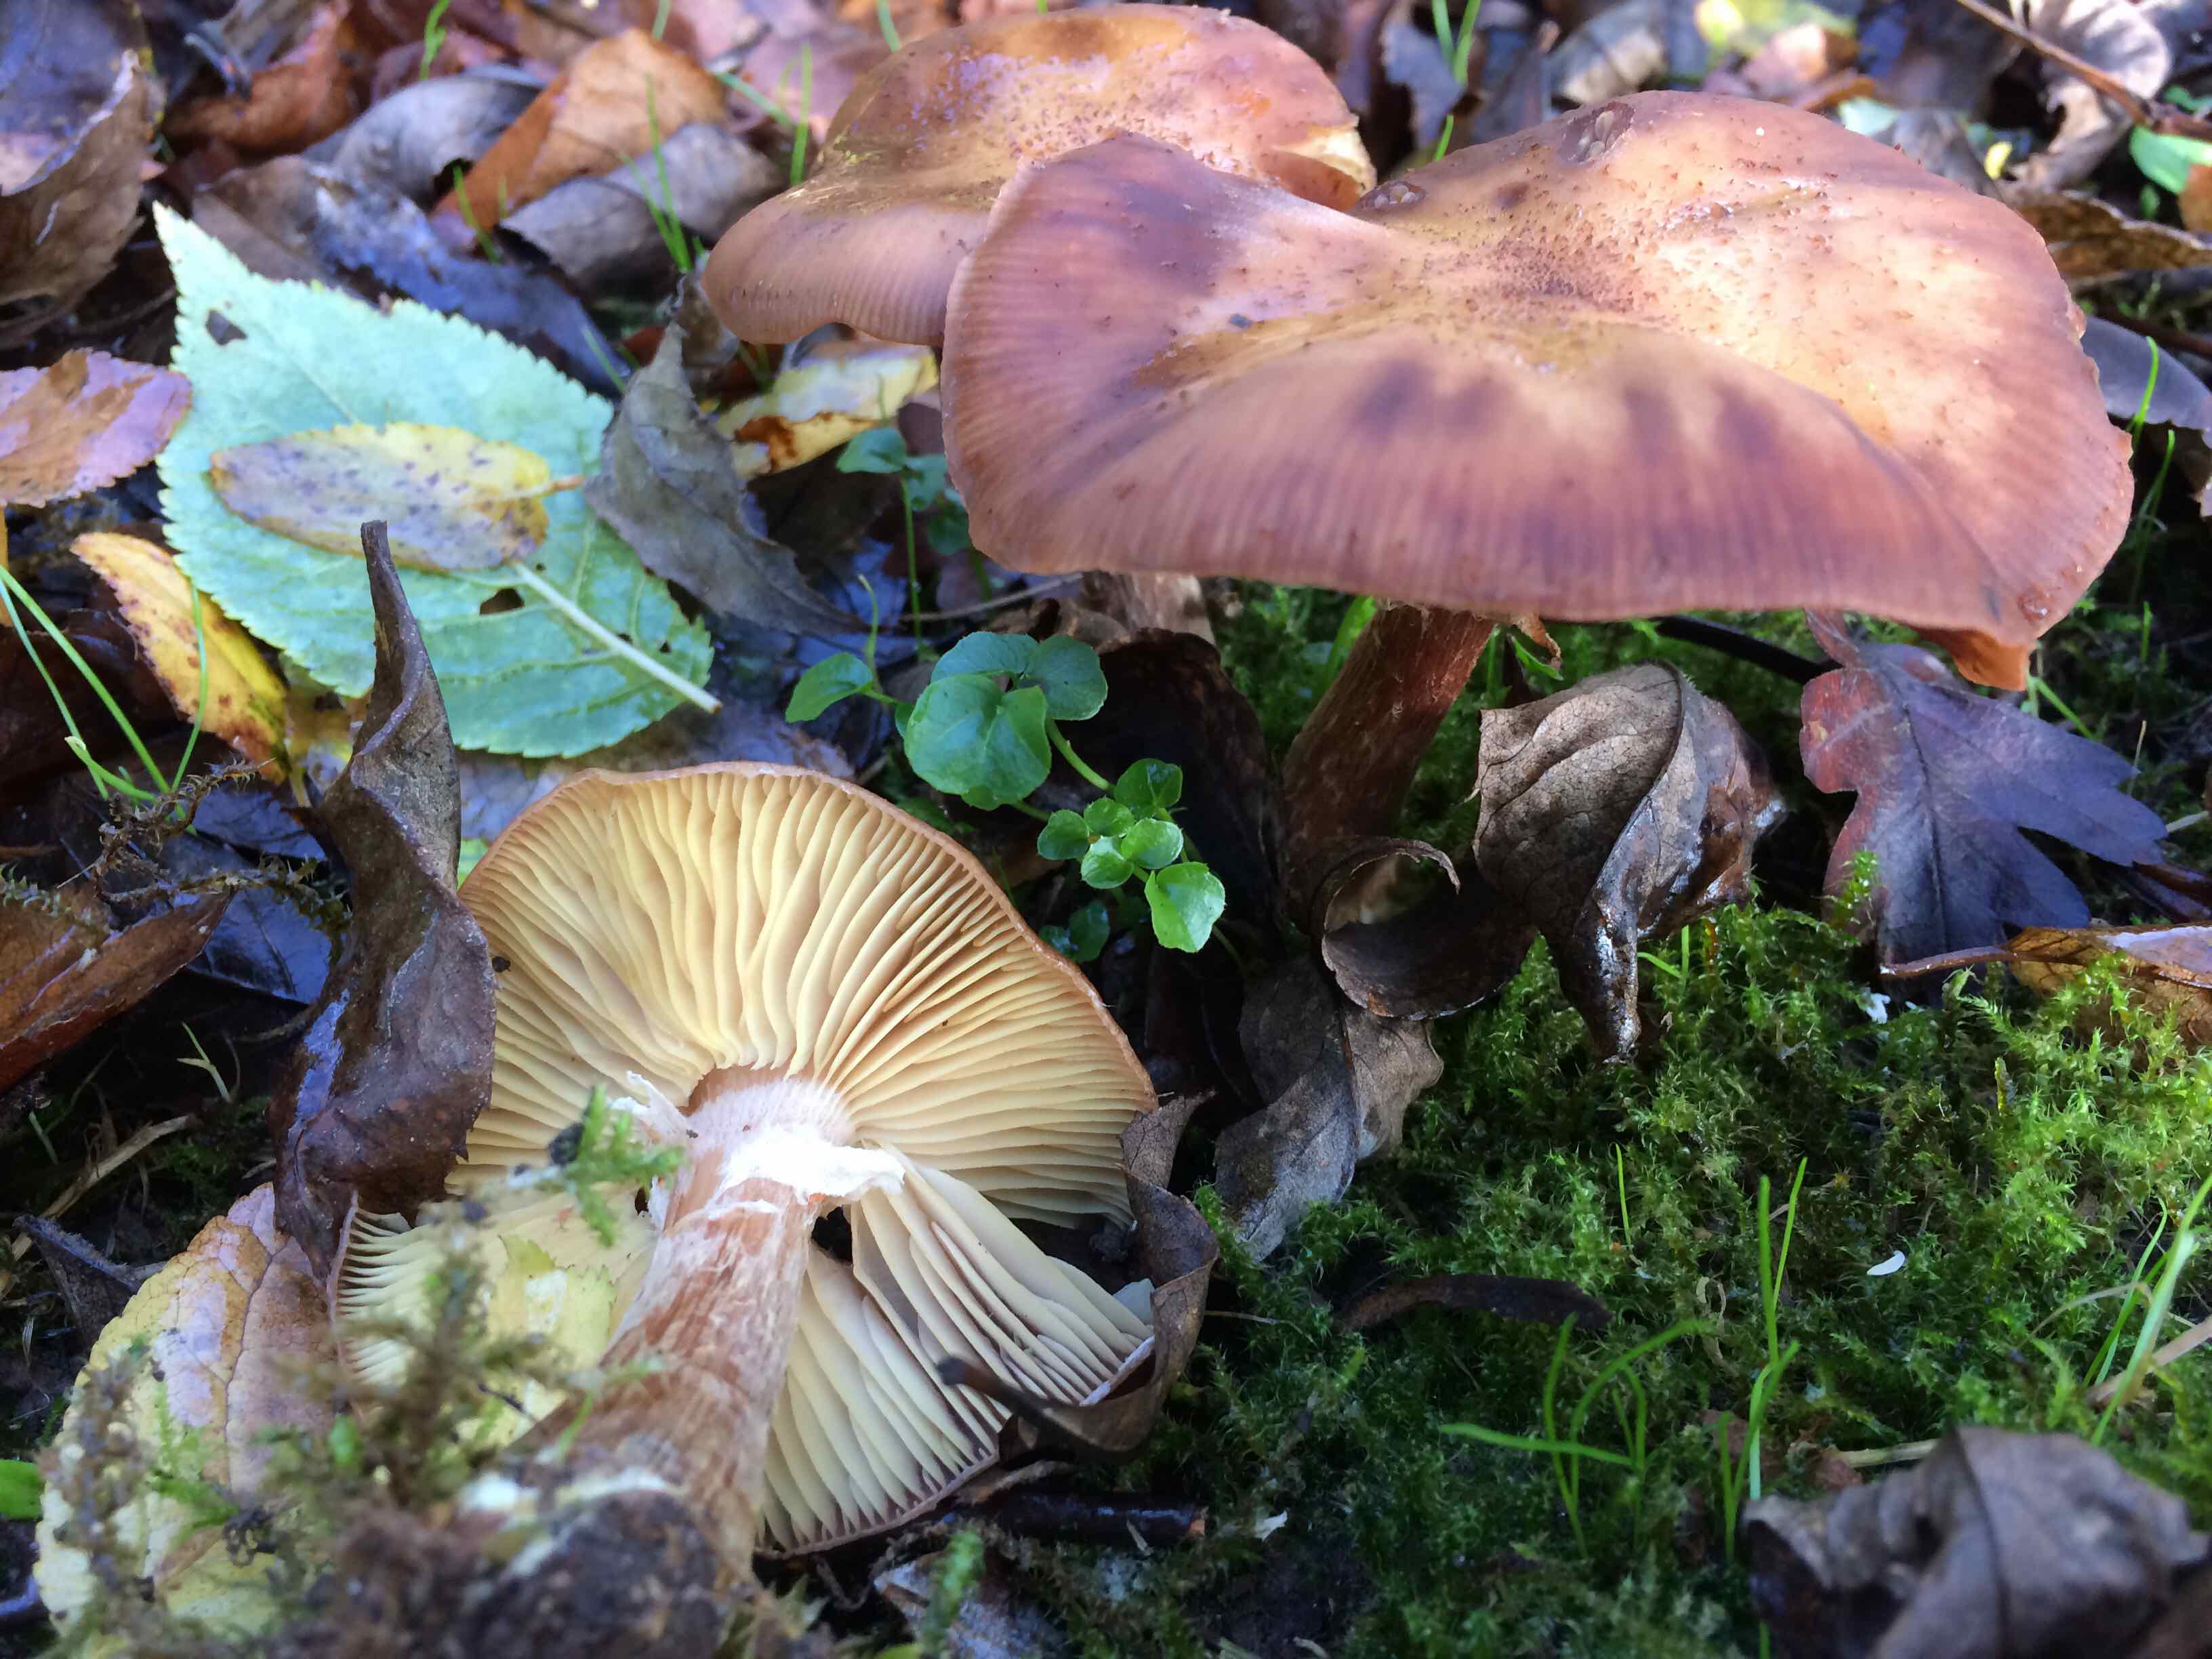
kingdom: Fungi
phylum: Basidiomycota
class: Agaricomycetes
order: Agaricales
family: Physalacriaceae
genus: Armillaria
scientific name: Armillaria
